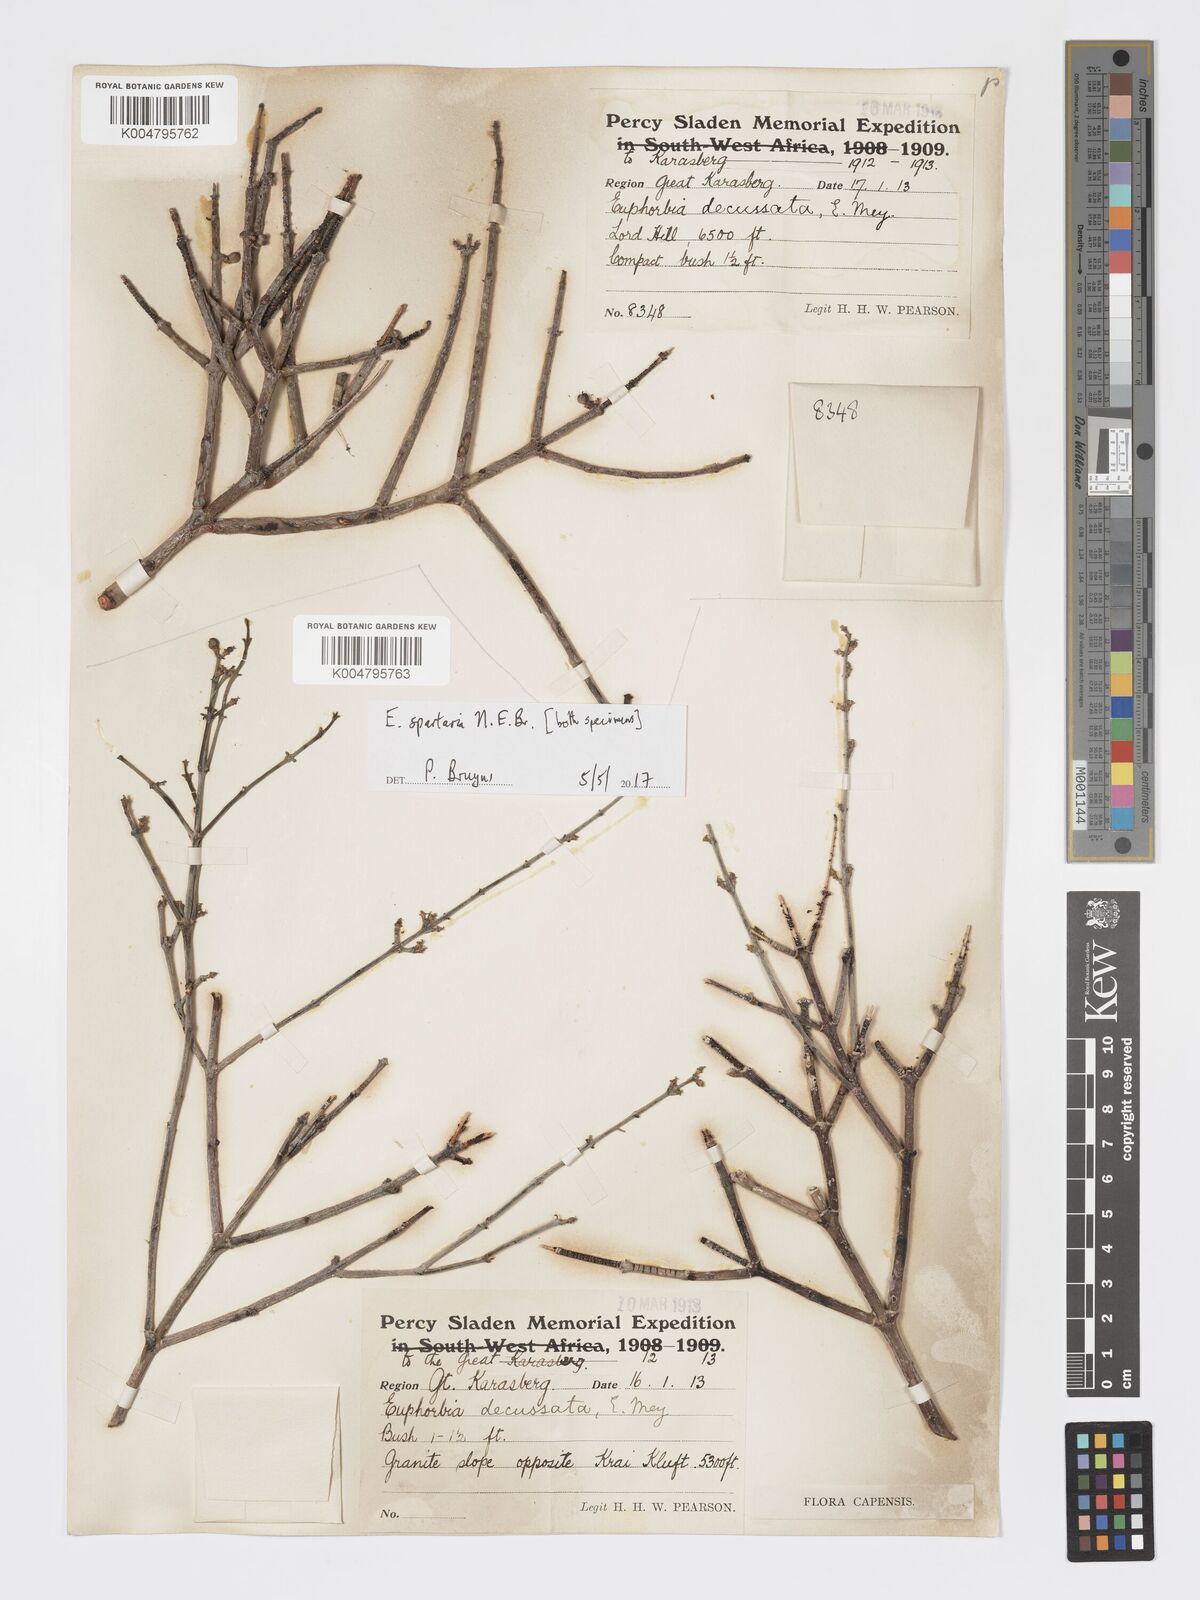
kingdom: Plantae
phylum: Tracheophyta
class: Magnoliopsida
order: Malpighiales
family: Euphorbiaceae
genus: Euphorbia
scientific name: Euphorbia spartaria
